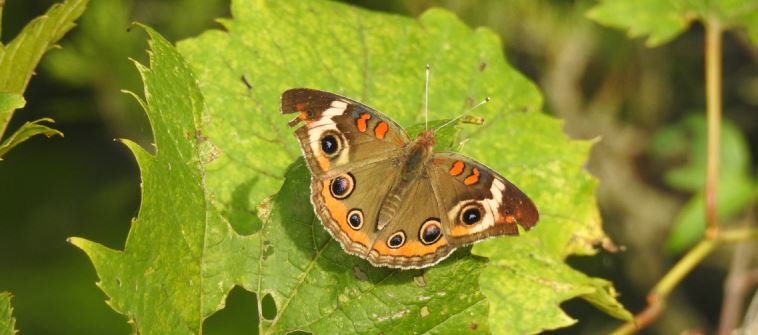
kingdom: Animalia
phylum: Arthropoda
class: Insecta
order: Lepidoptera
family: Nymphalidae
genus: Junonia
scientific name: Junonia coenia
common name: Common Buckeye
